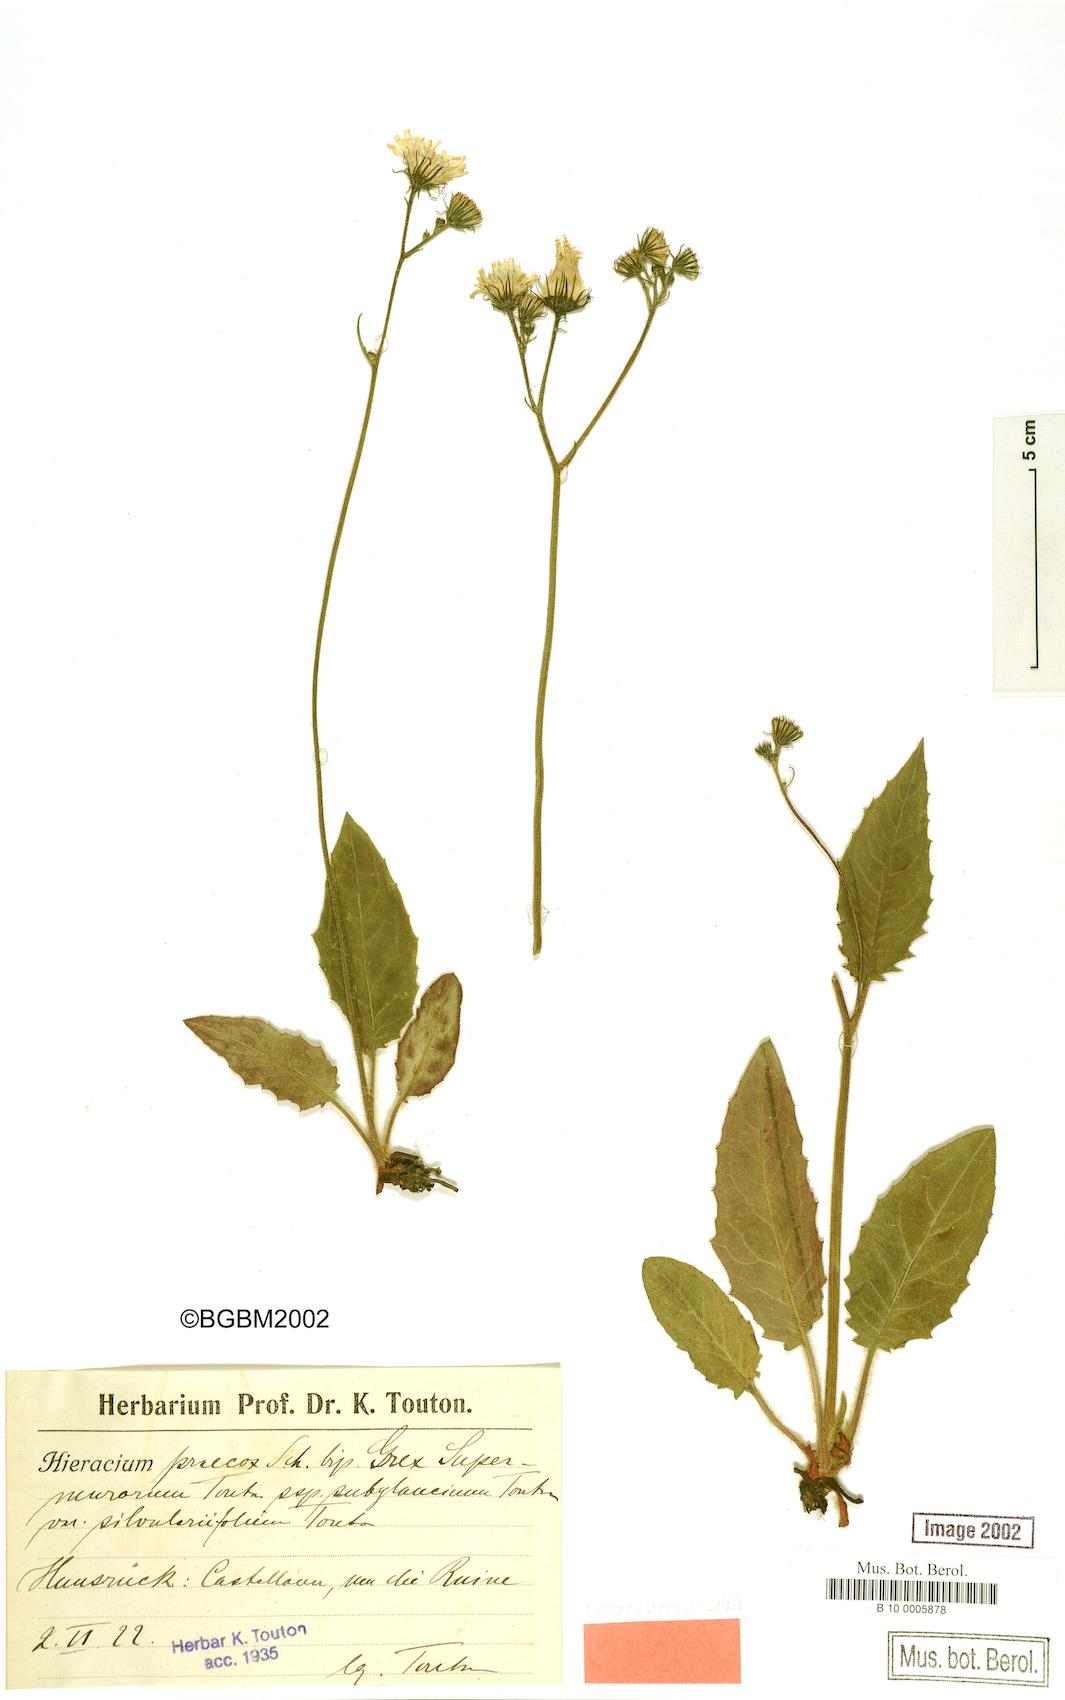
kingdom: Plantae
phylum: Tracheophyta
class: Magnoliopsida
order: Asterales
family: Asteraceae
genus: Hieracium
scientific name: Hieracium praecox
